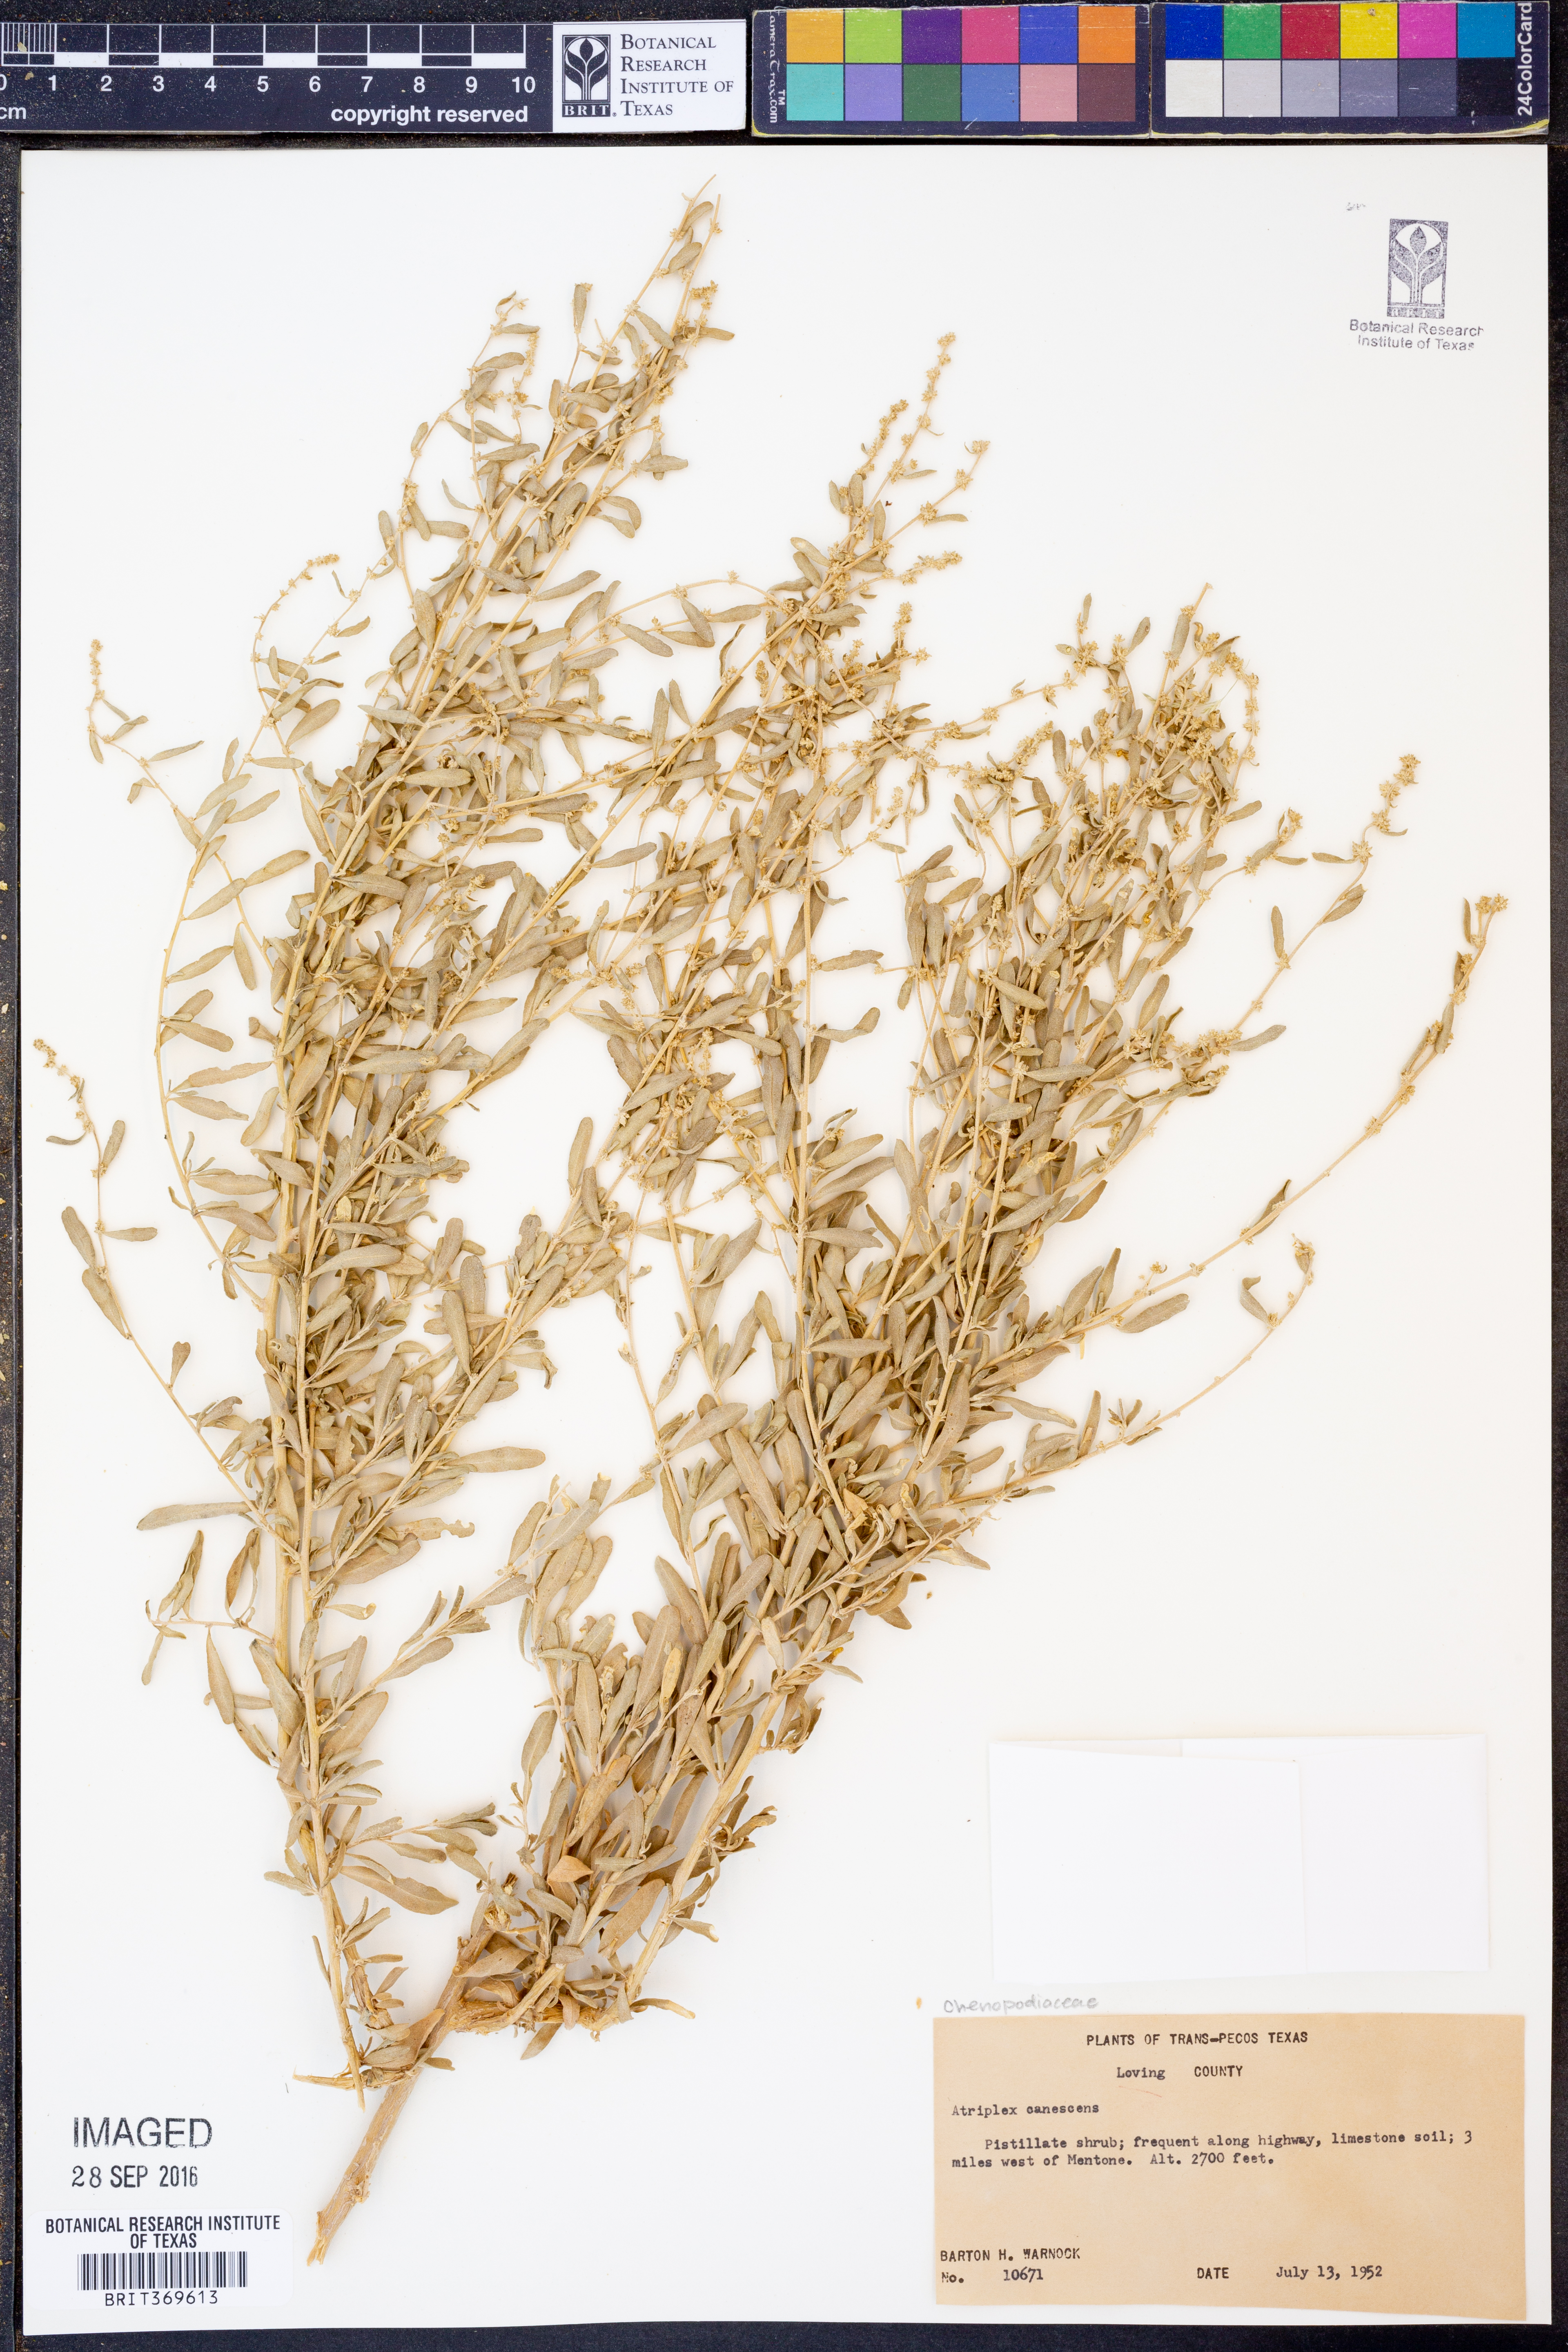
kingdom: Plantae
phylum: Tracheophyta
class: Magnoliopsida
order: Caryophyllales
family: Amaranthaceae
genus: Atriplex
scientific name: Atriplex canescens
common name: Four-wing saltbush
